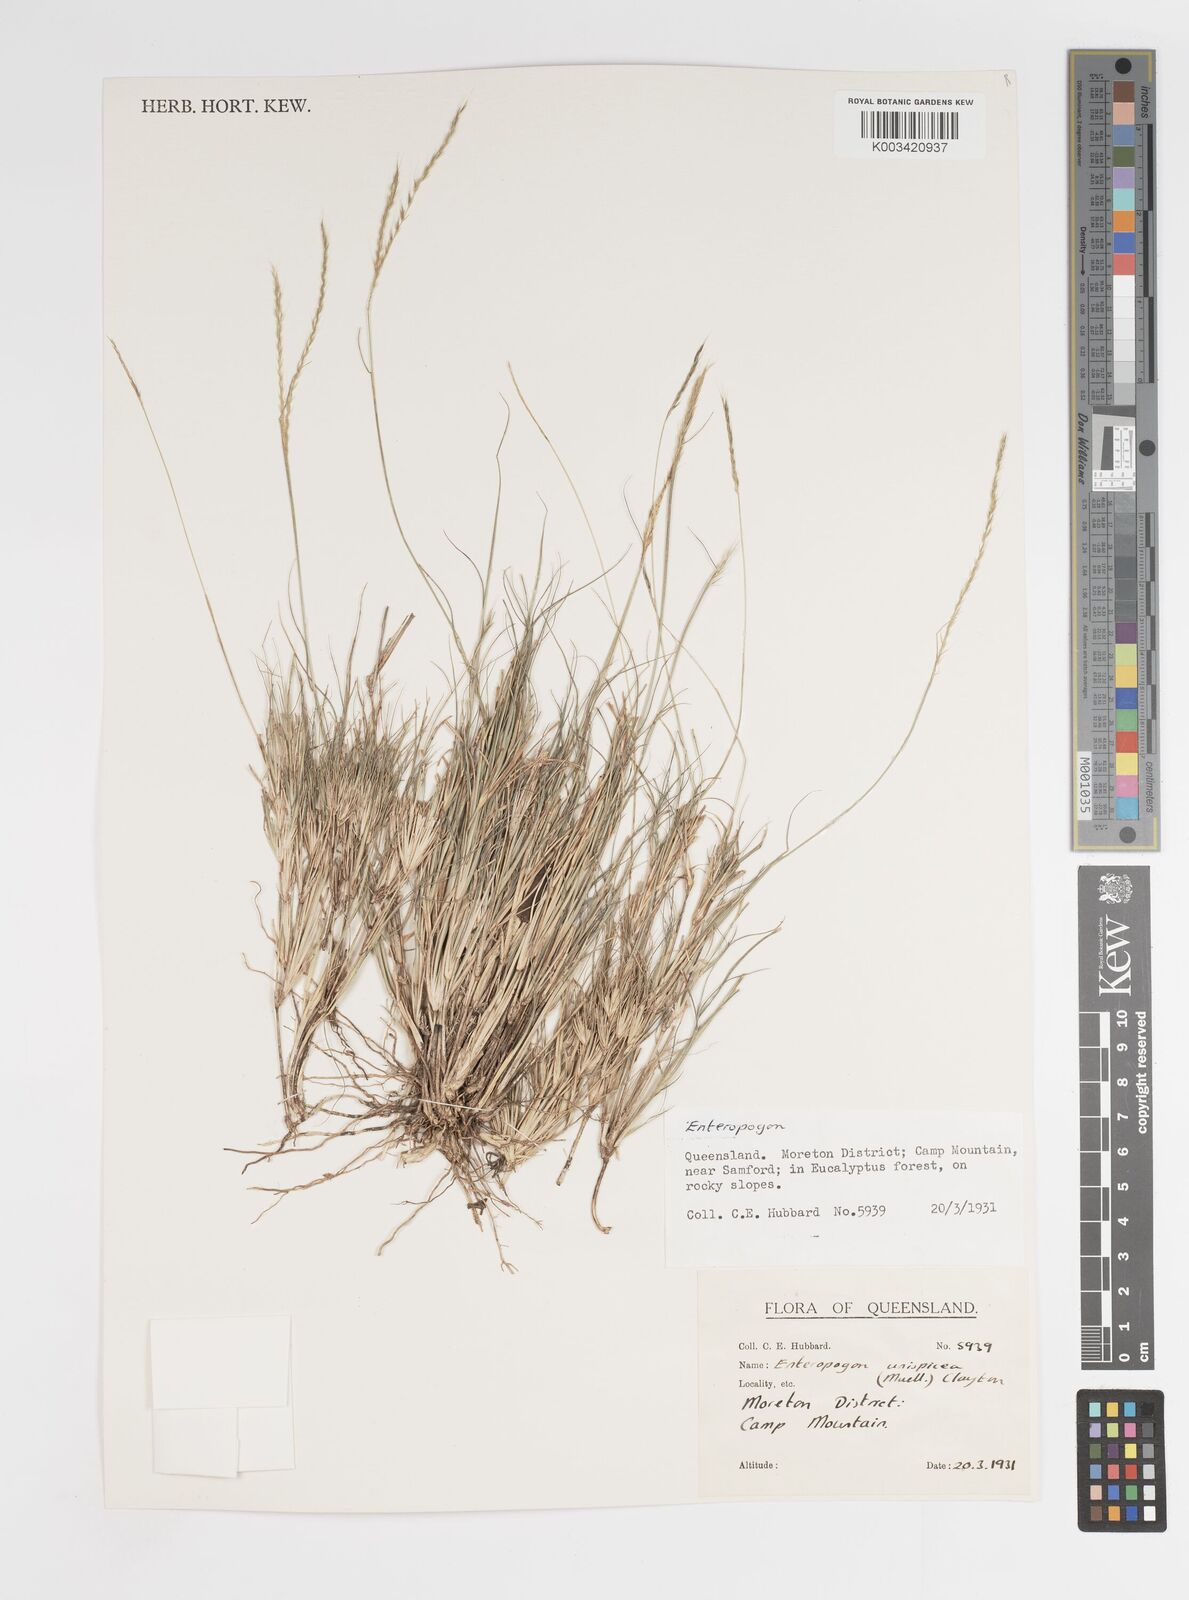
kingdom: Plantae
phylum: Tracheophyta
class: Liliopsida
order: Poales
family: Poaceae
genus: Enteropogon
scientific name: Enteropogon unispiceus
